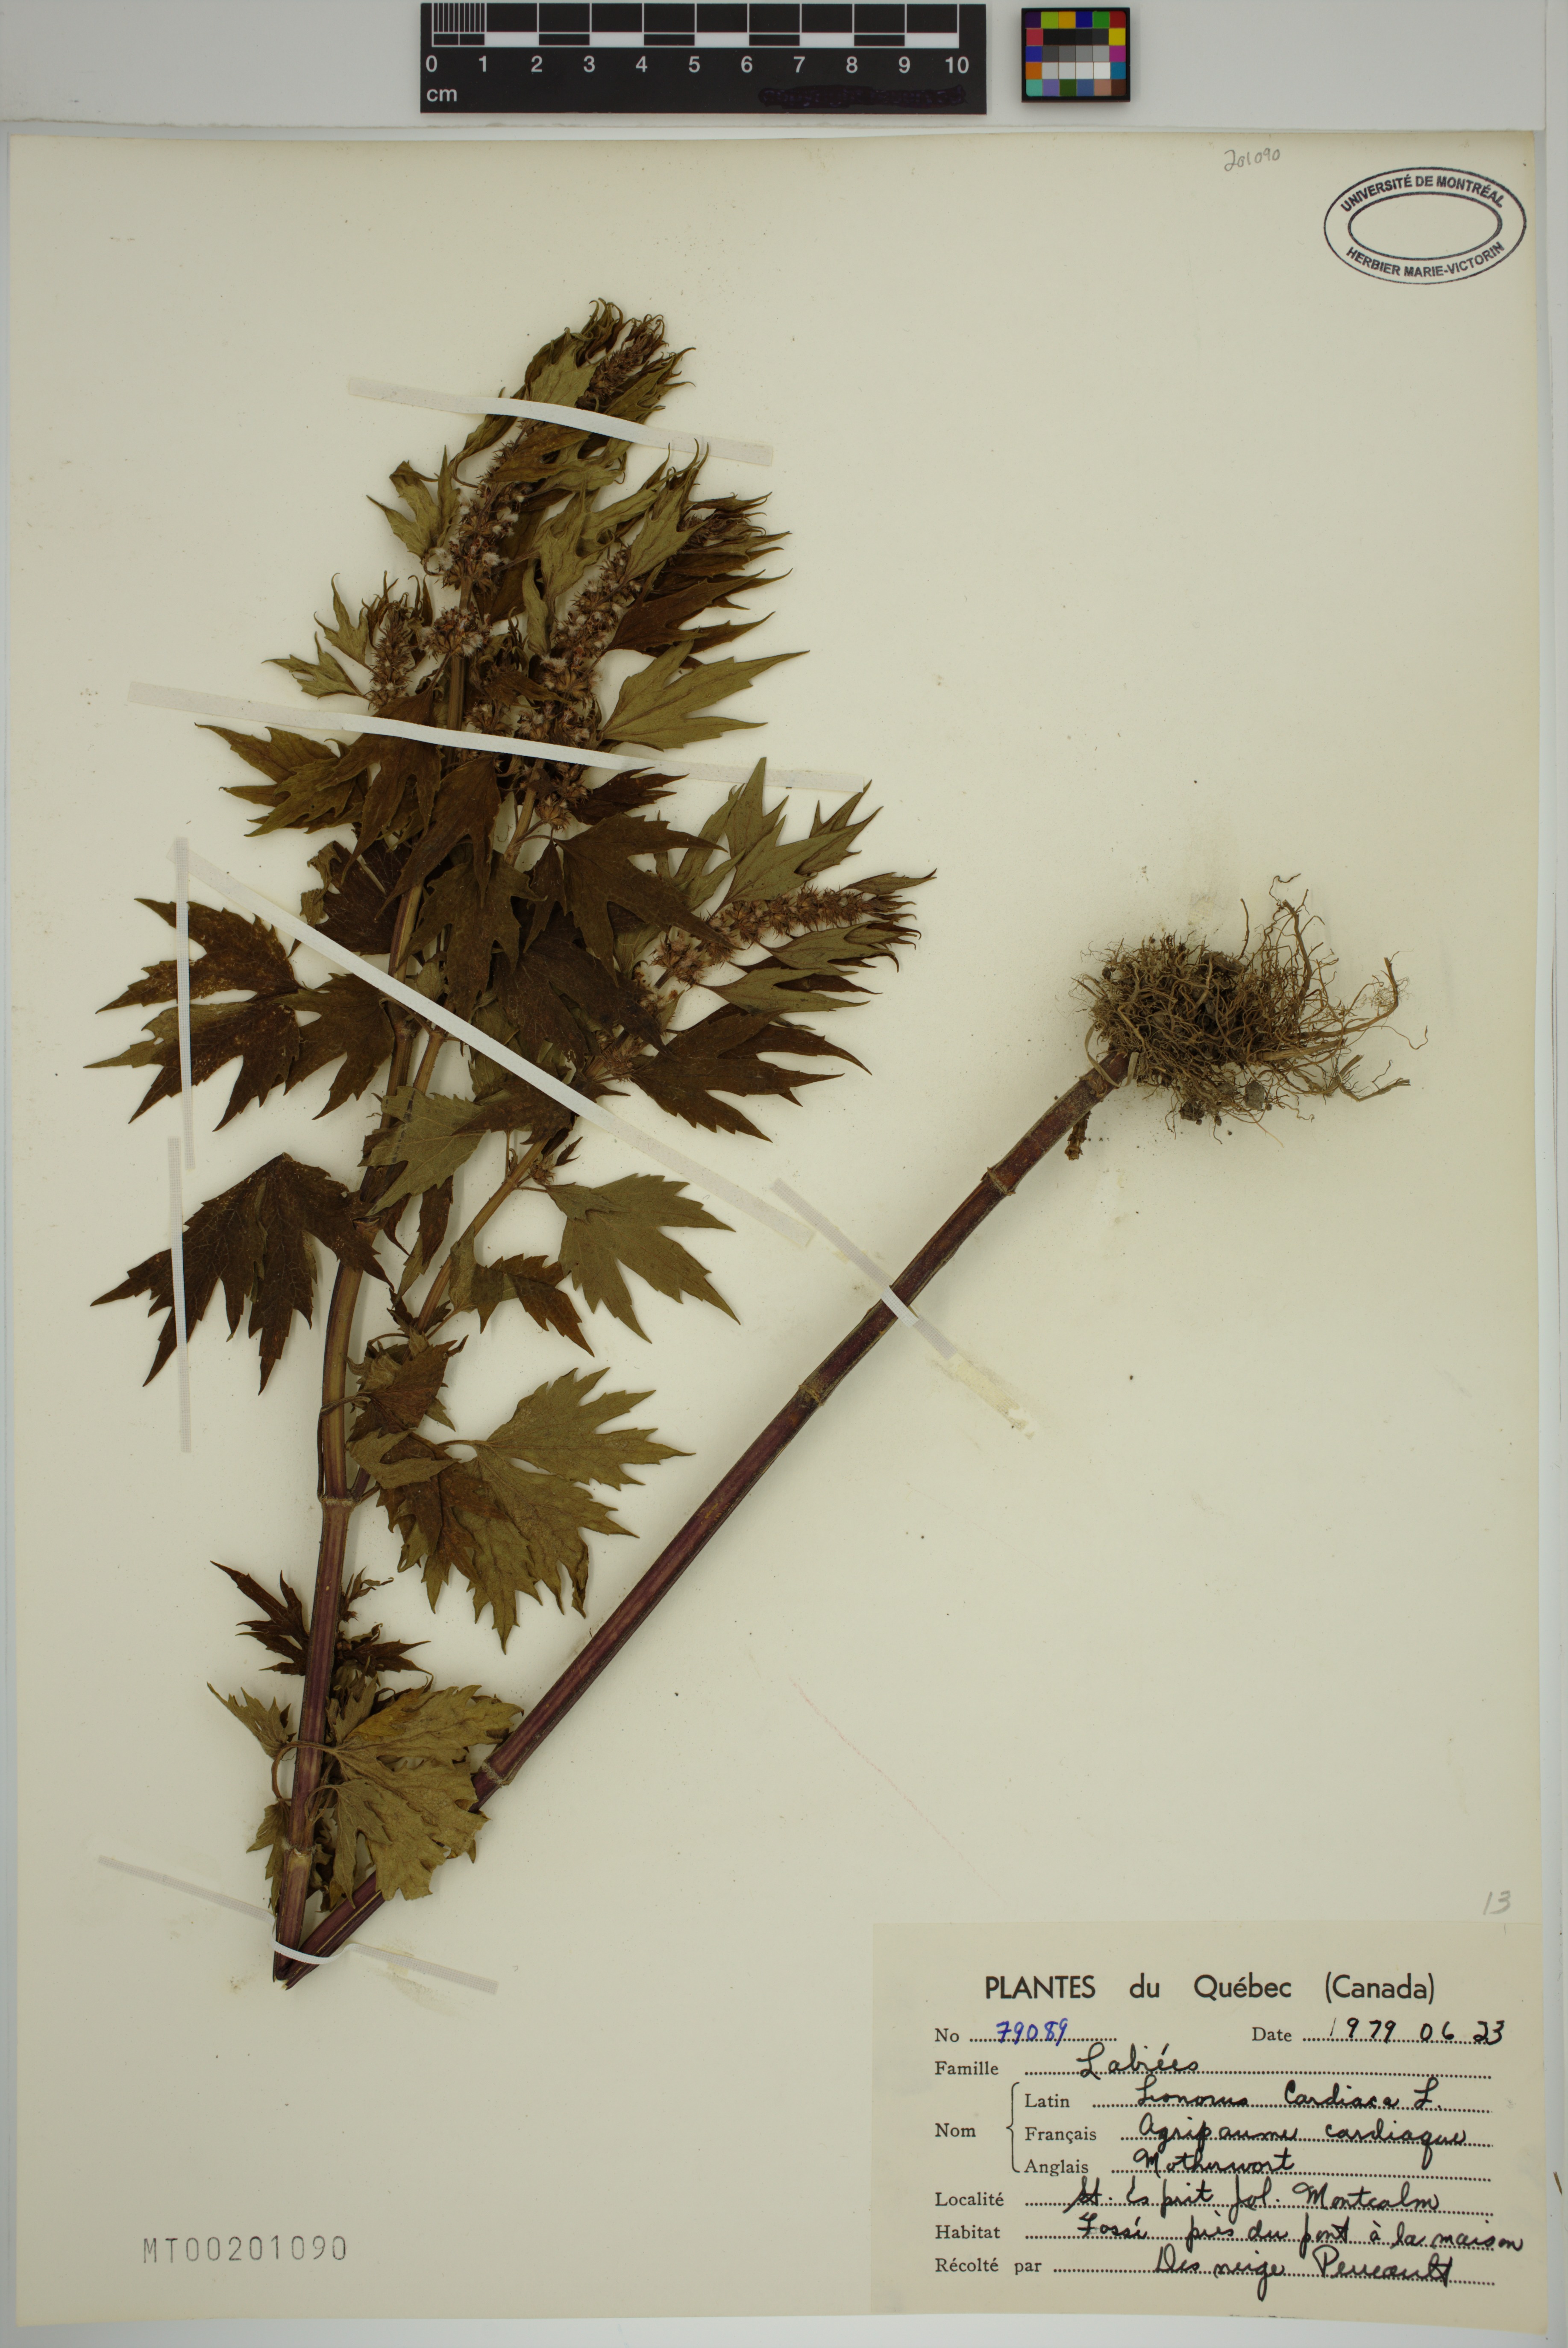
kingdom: Plantae
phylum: Tracheophyta
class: Magnoliopsida
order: Lamiales
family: Lamiaceae
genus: Leonurus
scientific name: Leonurus cardiaca
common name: Motherwort
